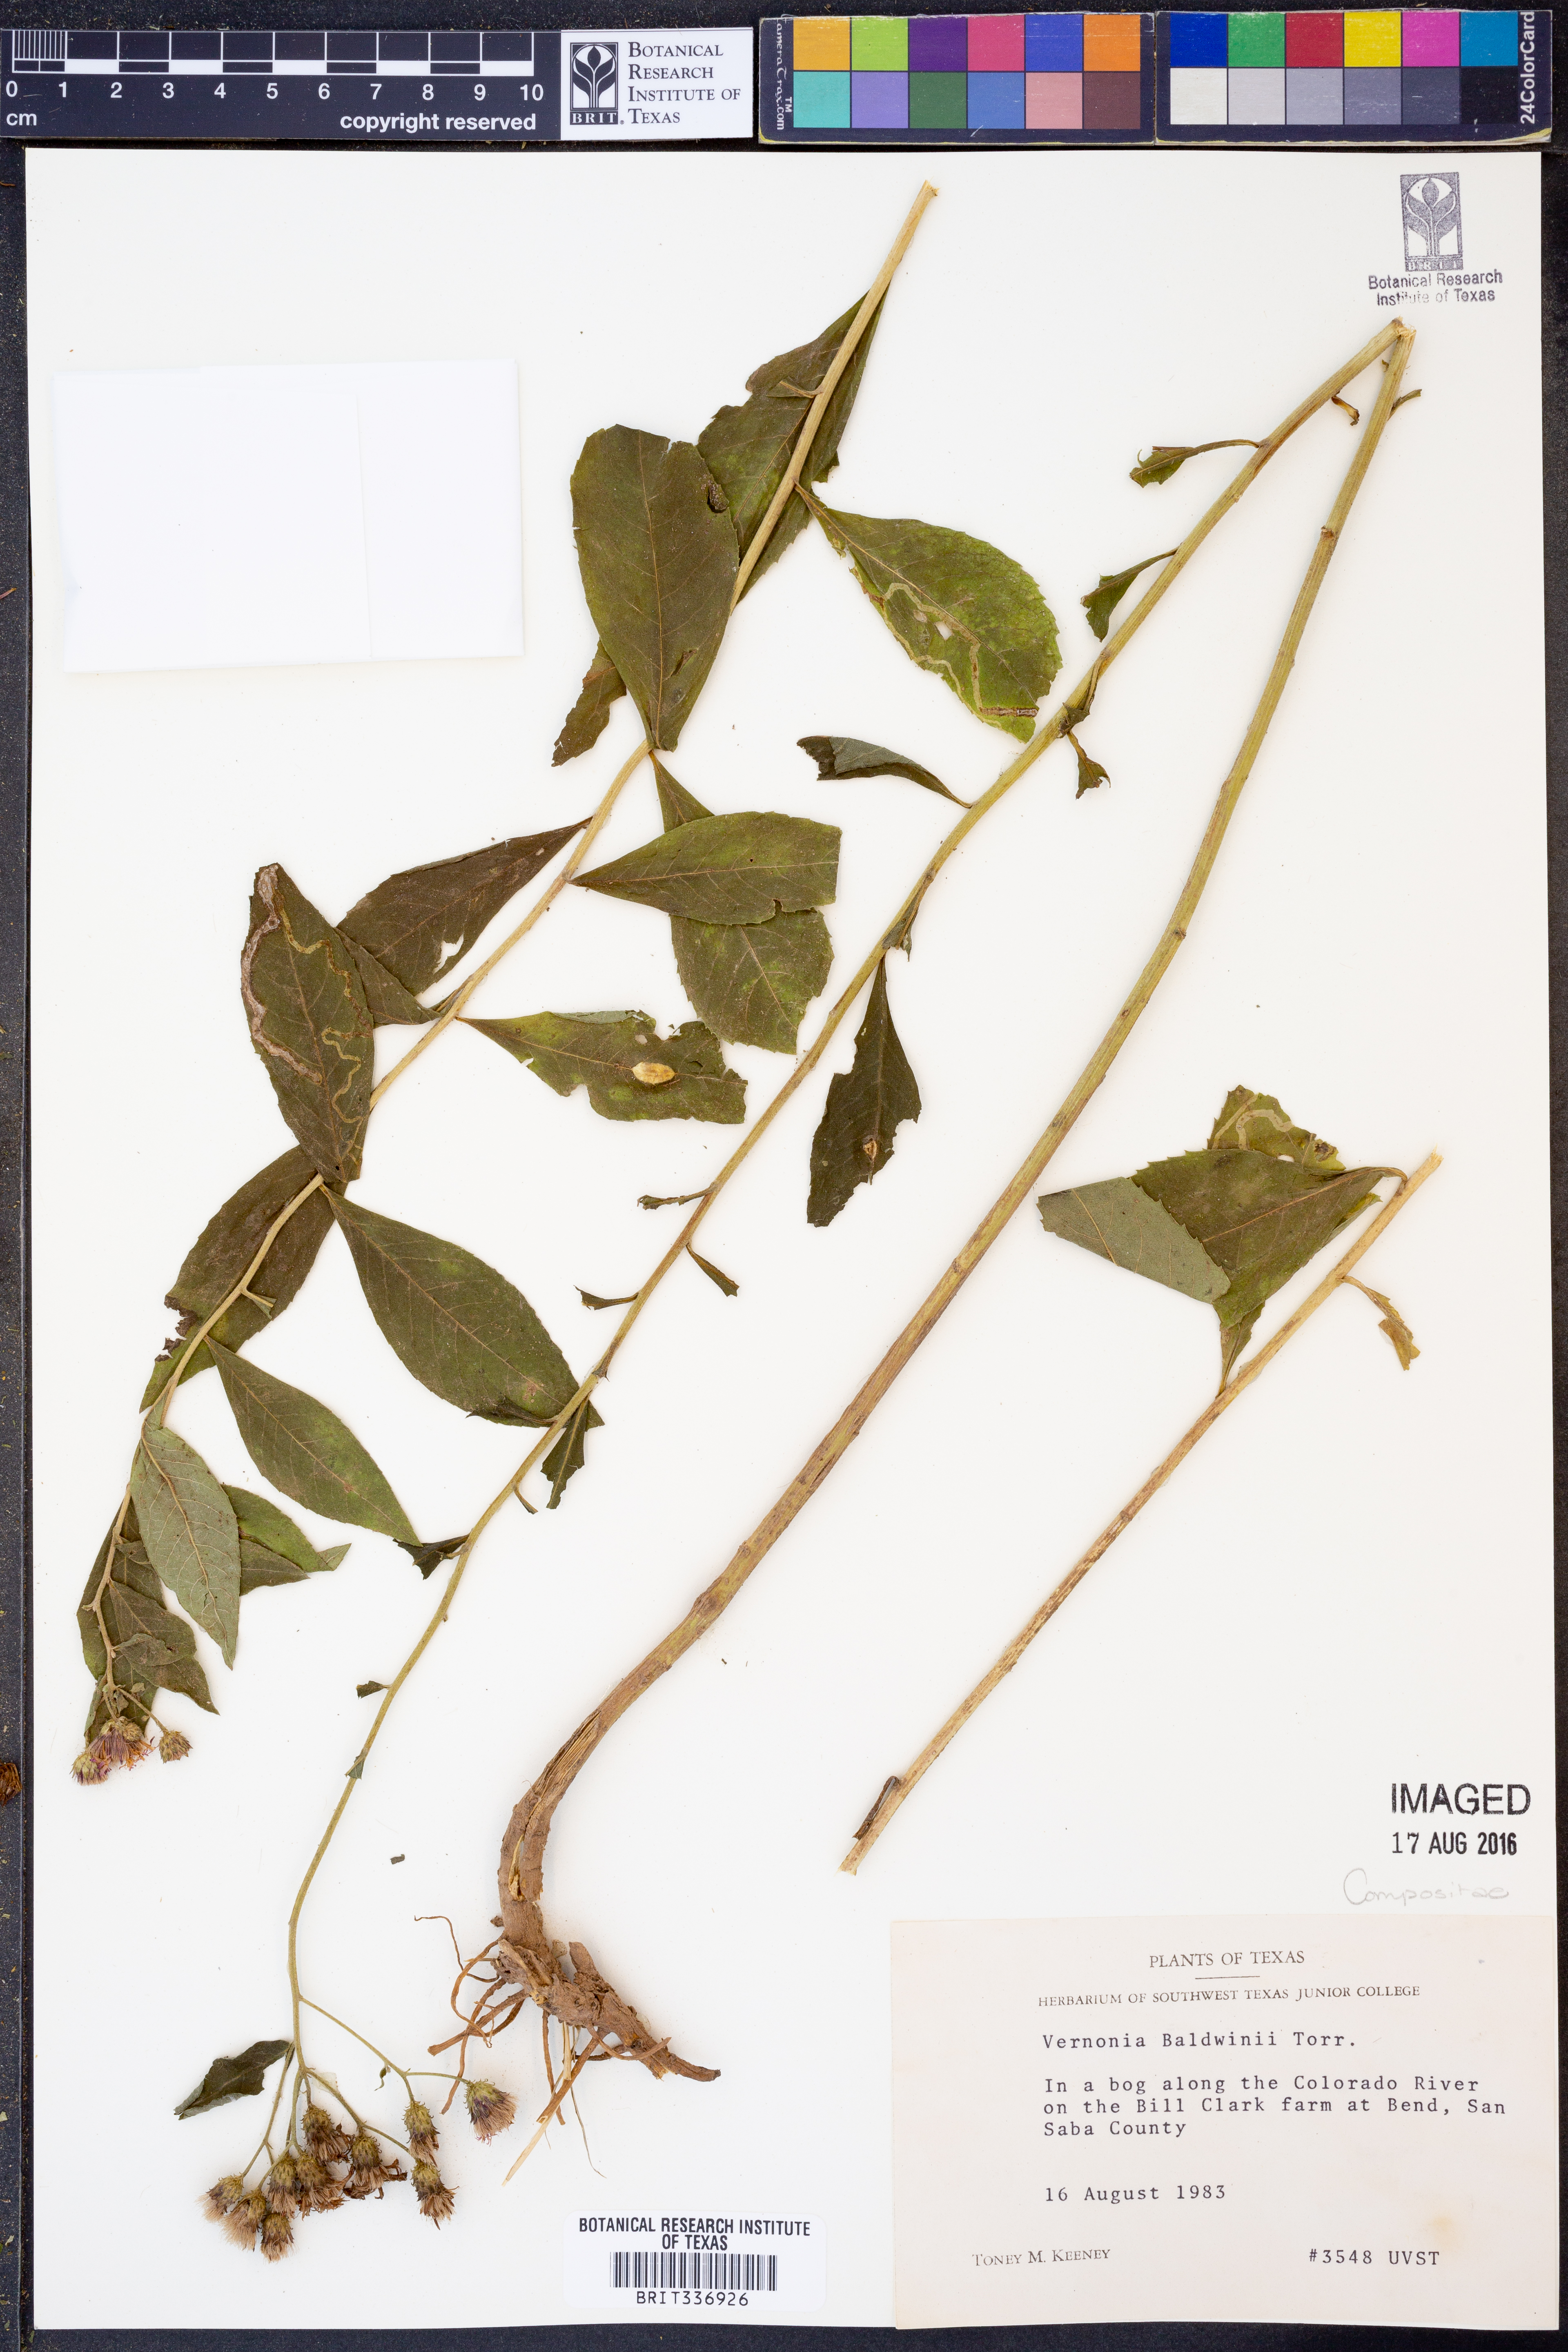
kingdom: Plantae
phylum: Tracheophyta
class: Magnoliopsida
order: Asterales
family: Asteraceae
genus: Vernonia
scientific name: Vernonia baldwinii
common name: Western ironweed
